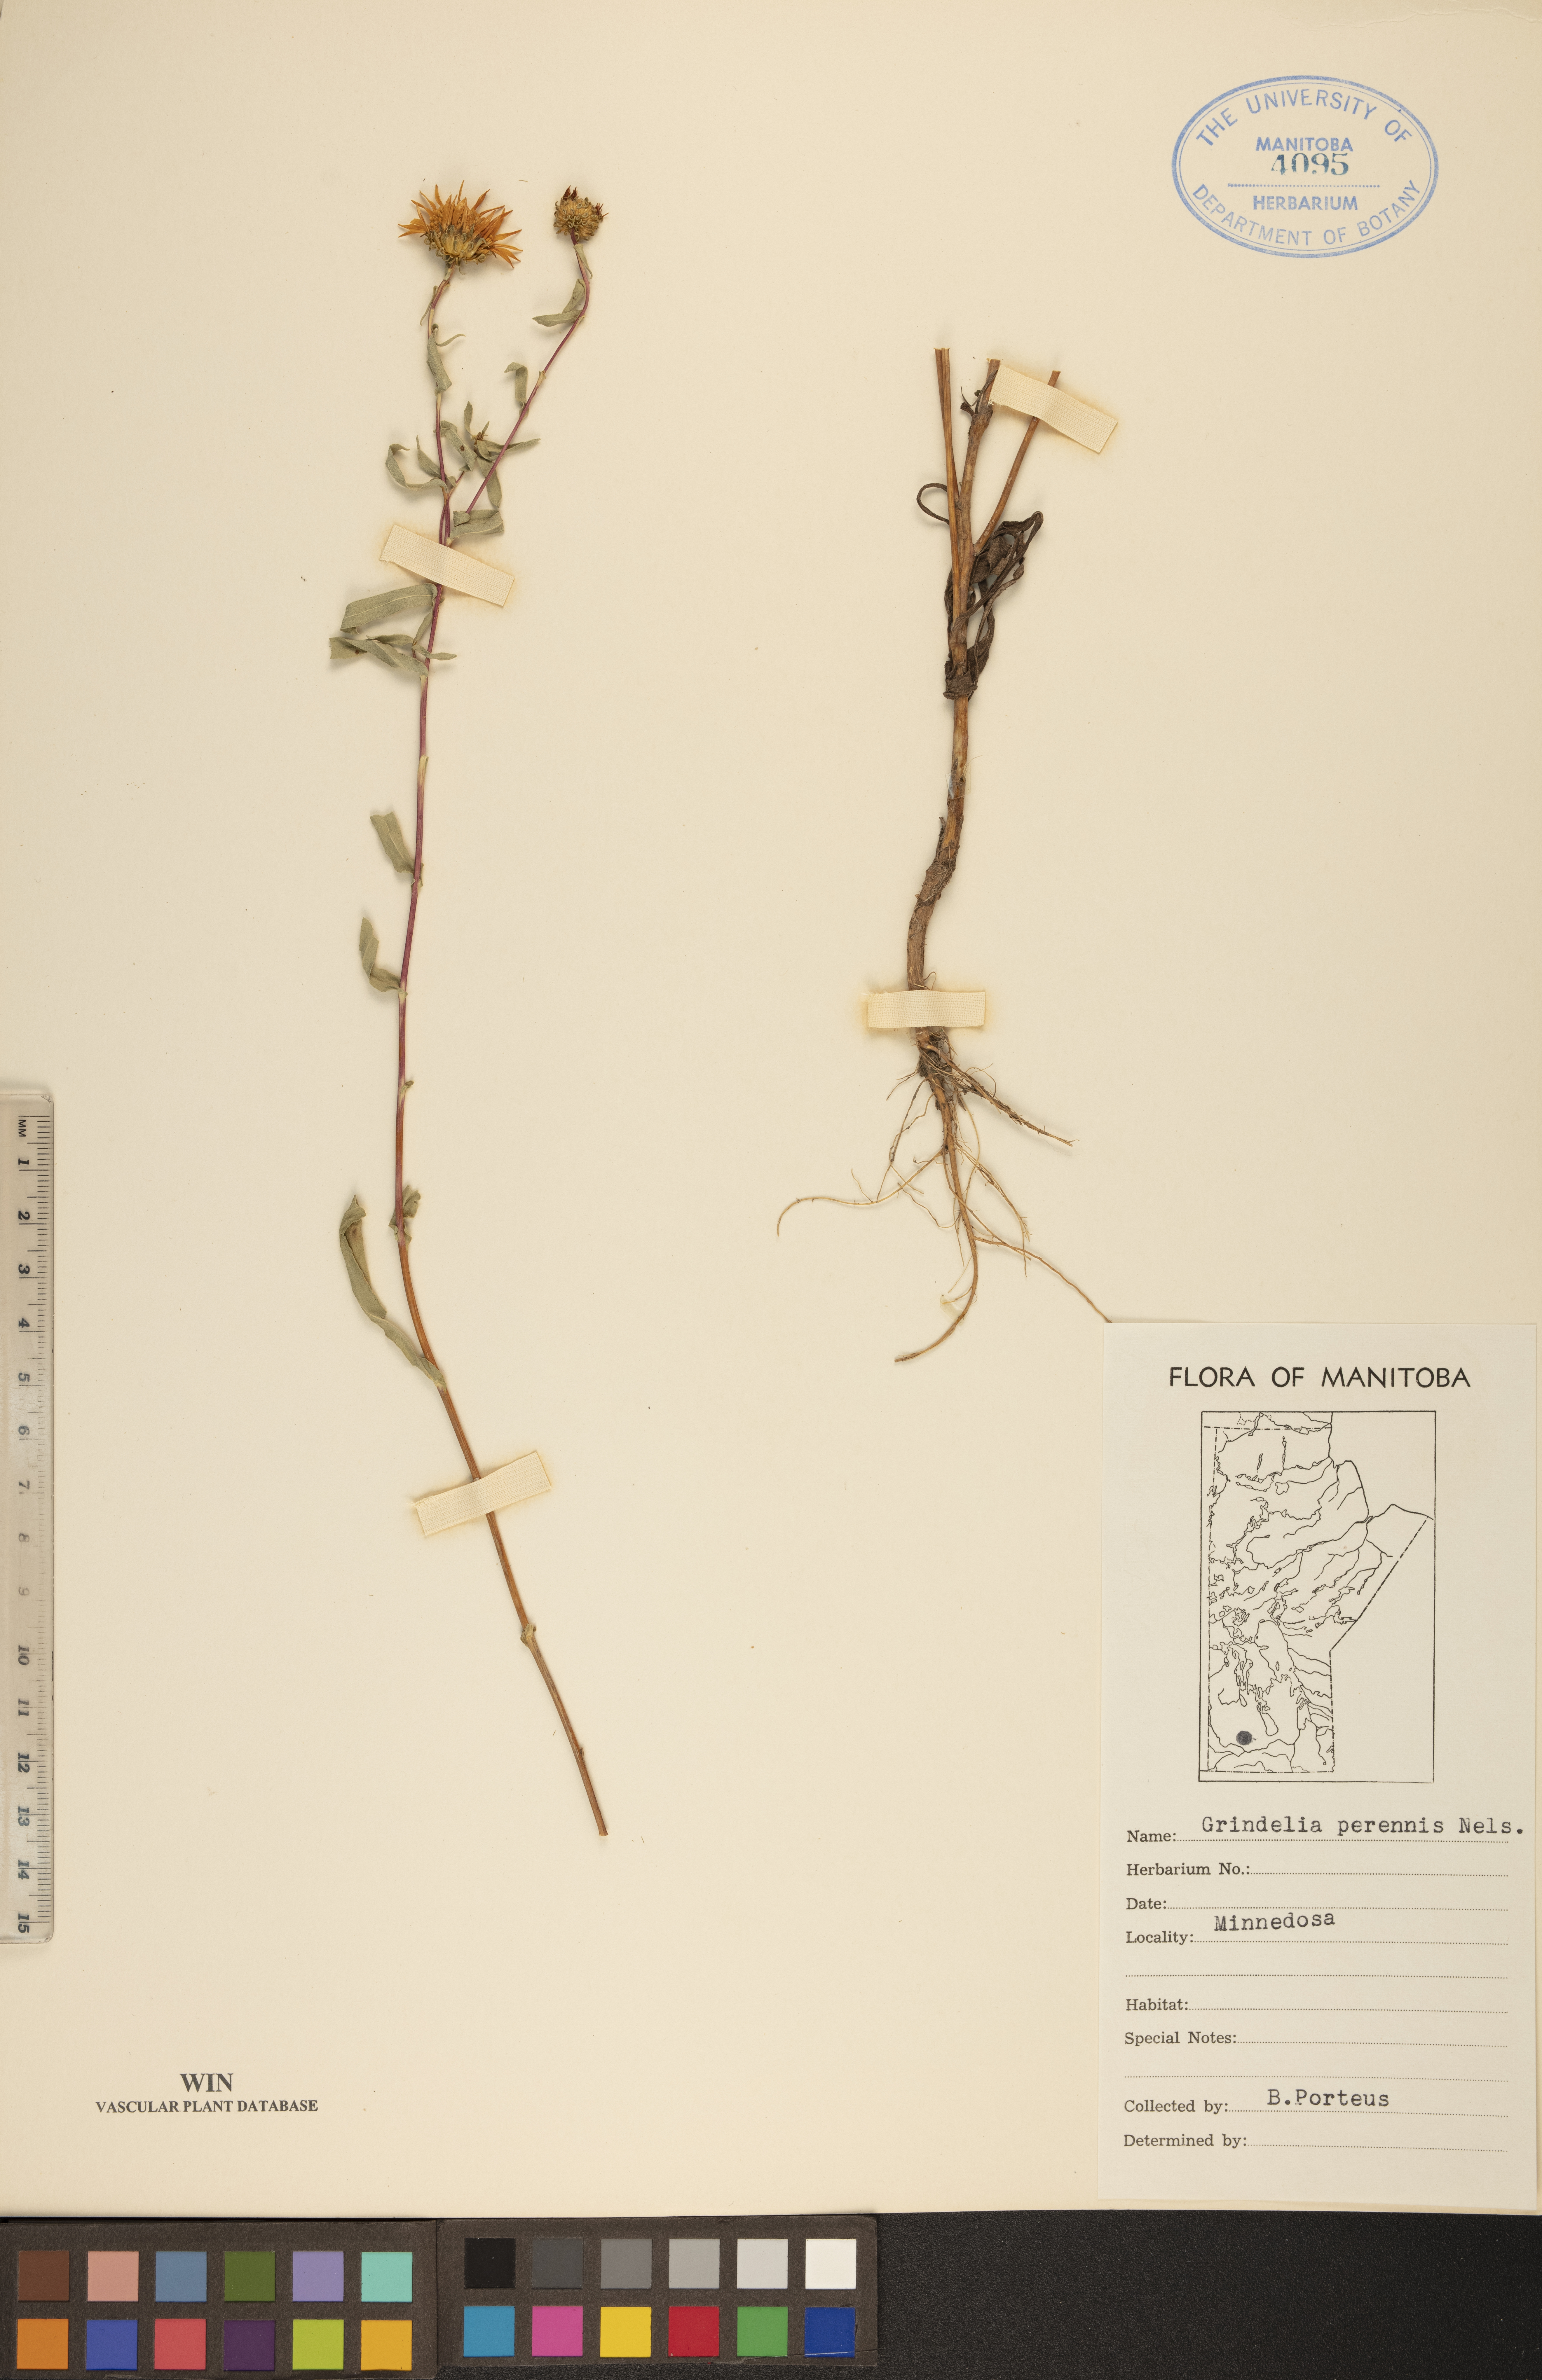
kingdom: Plantae
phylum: Tracheophyta
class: Magnoliopsida
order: Asterales
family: Asteraceae
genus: Grindelia
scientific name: Grindelia hirsutula
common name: Hairy gumweed
